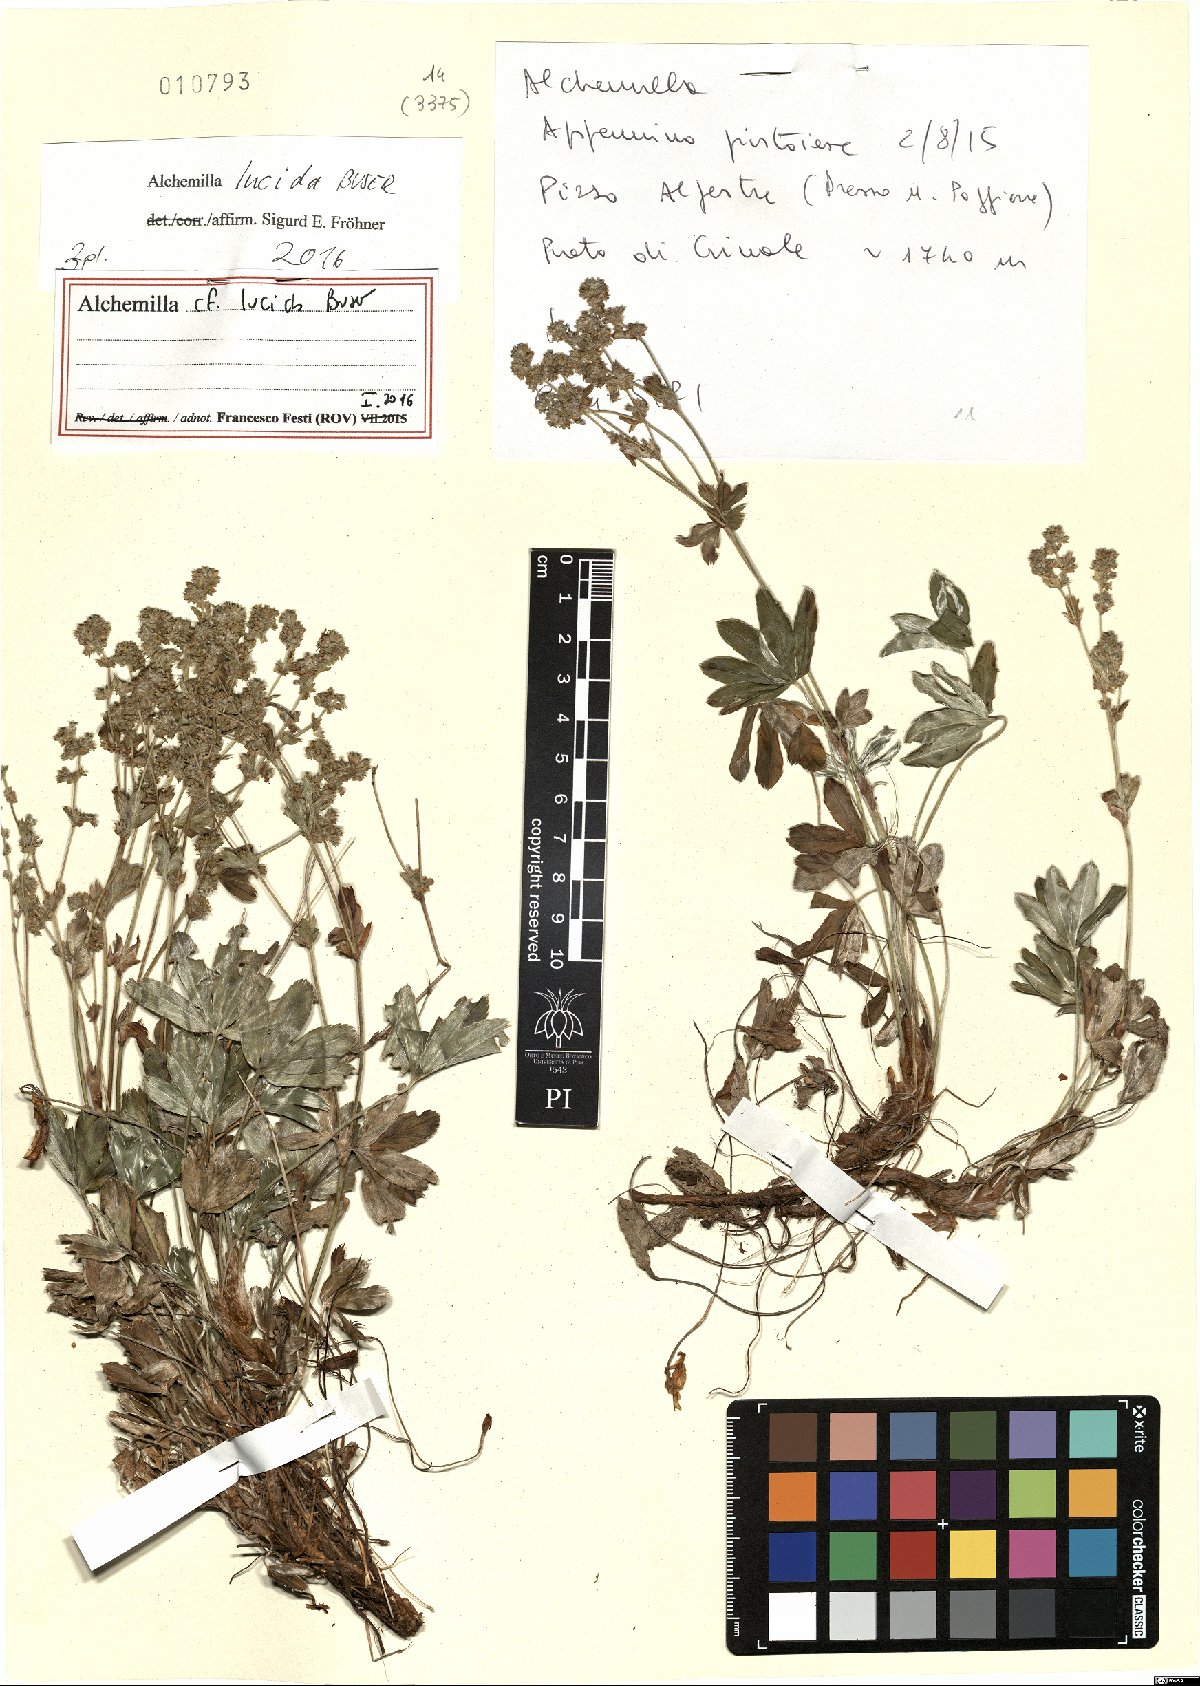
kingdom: Plantae
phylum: Tracheophyta
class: Magnoliopsida
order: Rosales
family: Rosaceae
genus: Alchemilla
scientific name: Alchemilla lucida
